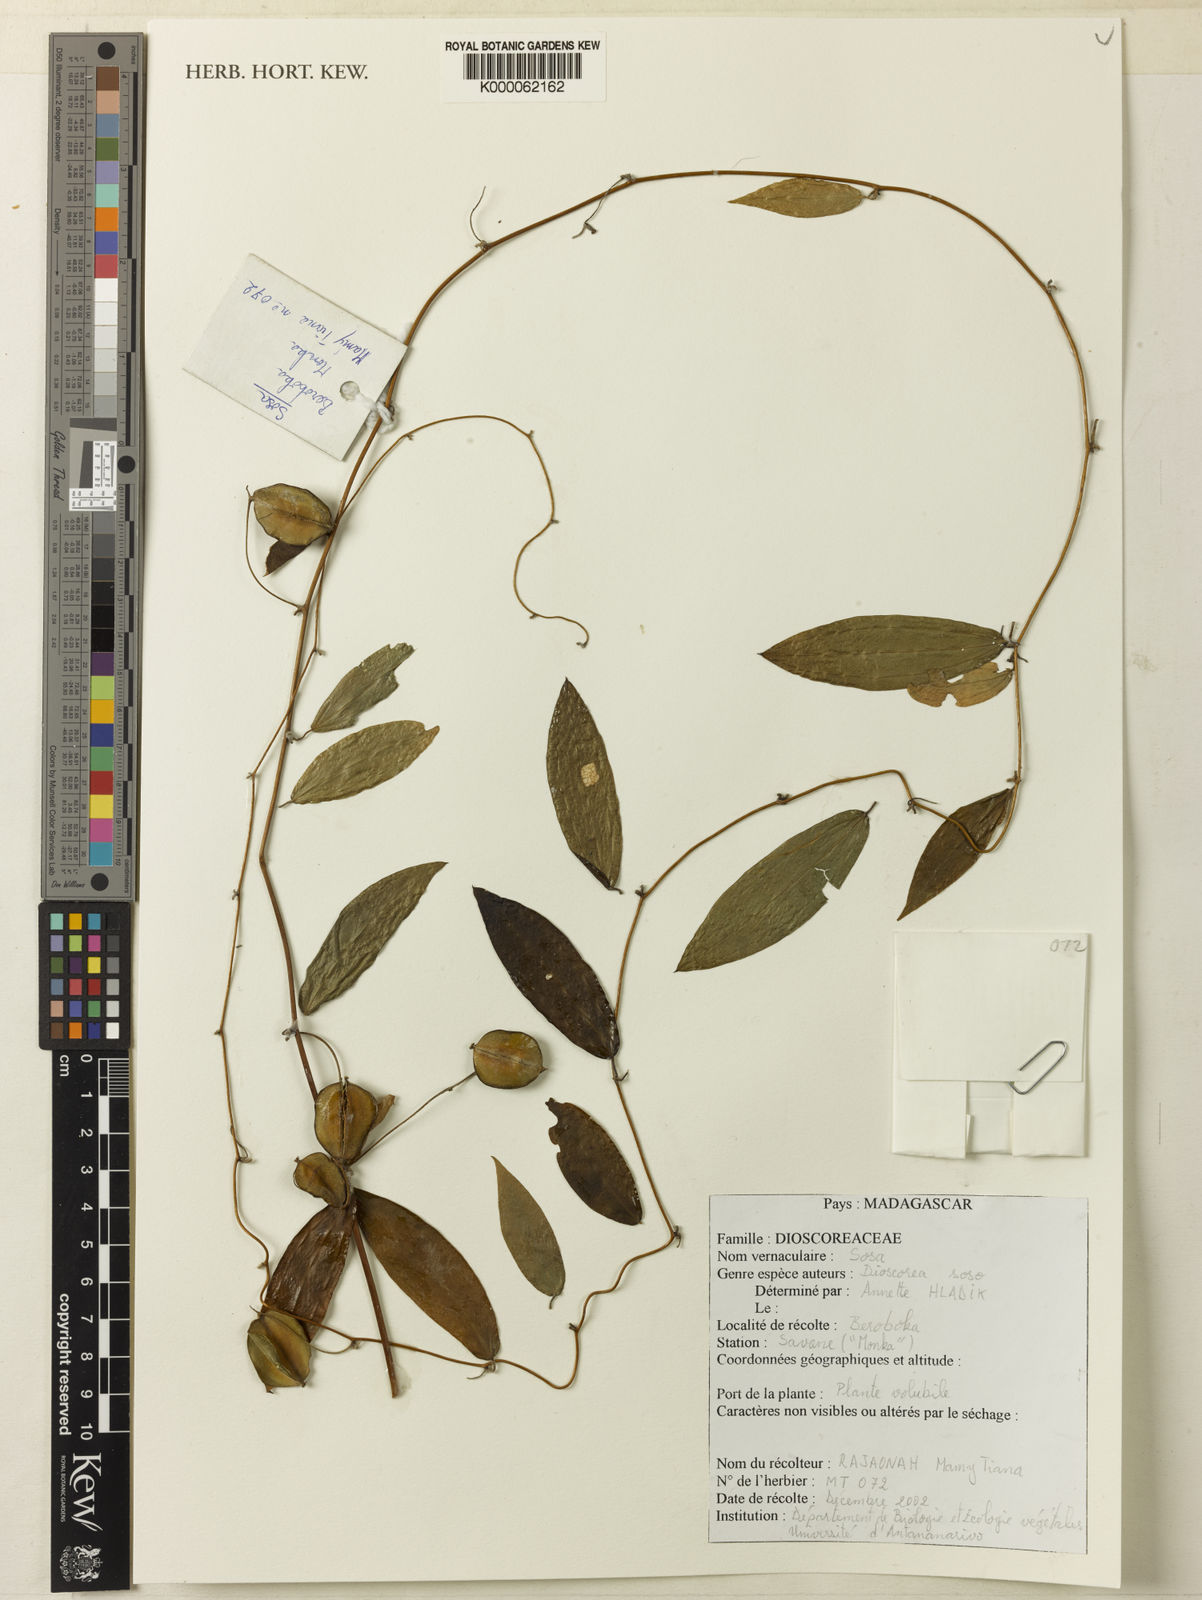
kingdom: Plantae
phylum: Tracheophyta
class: Liliopsida
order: Dioscoreales
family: Dioscoreaceae
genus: Dioscorea
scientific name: Dioscorea soso
